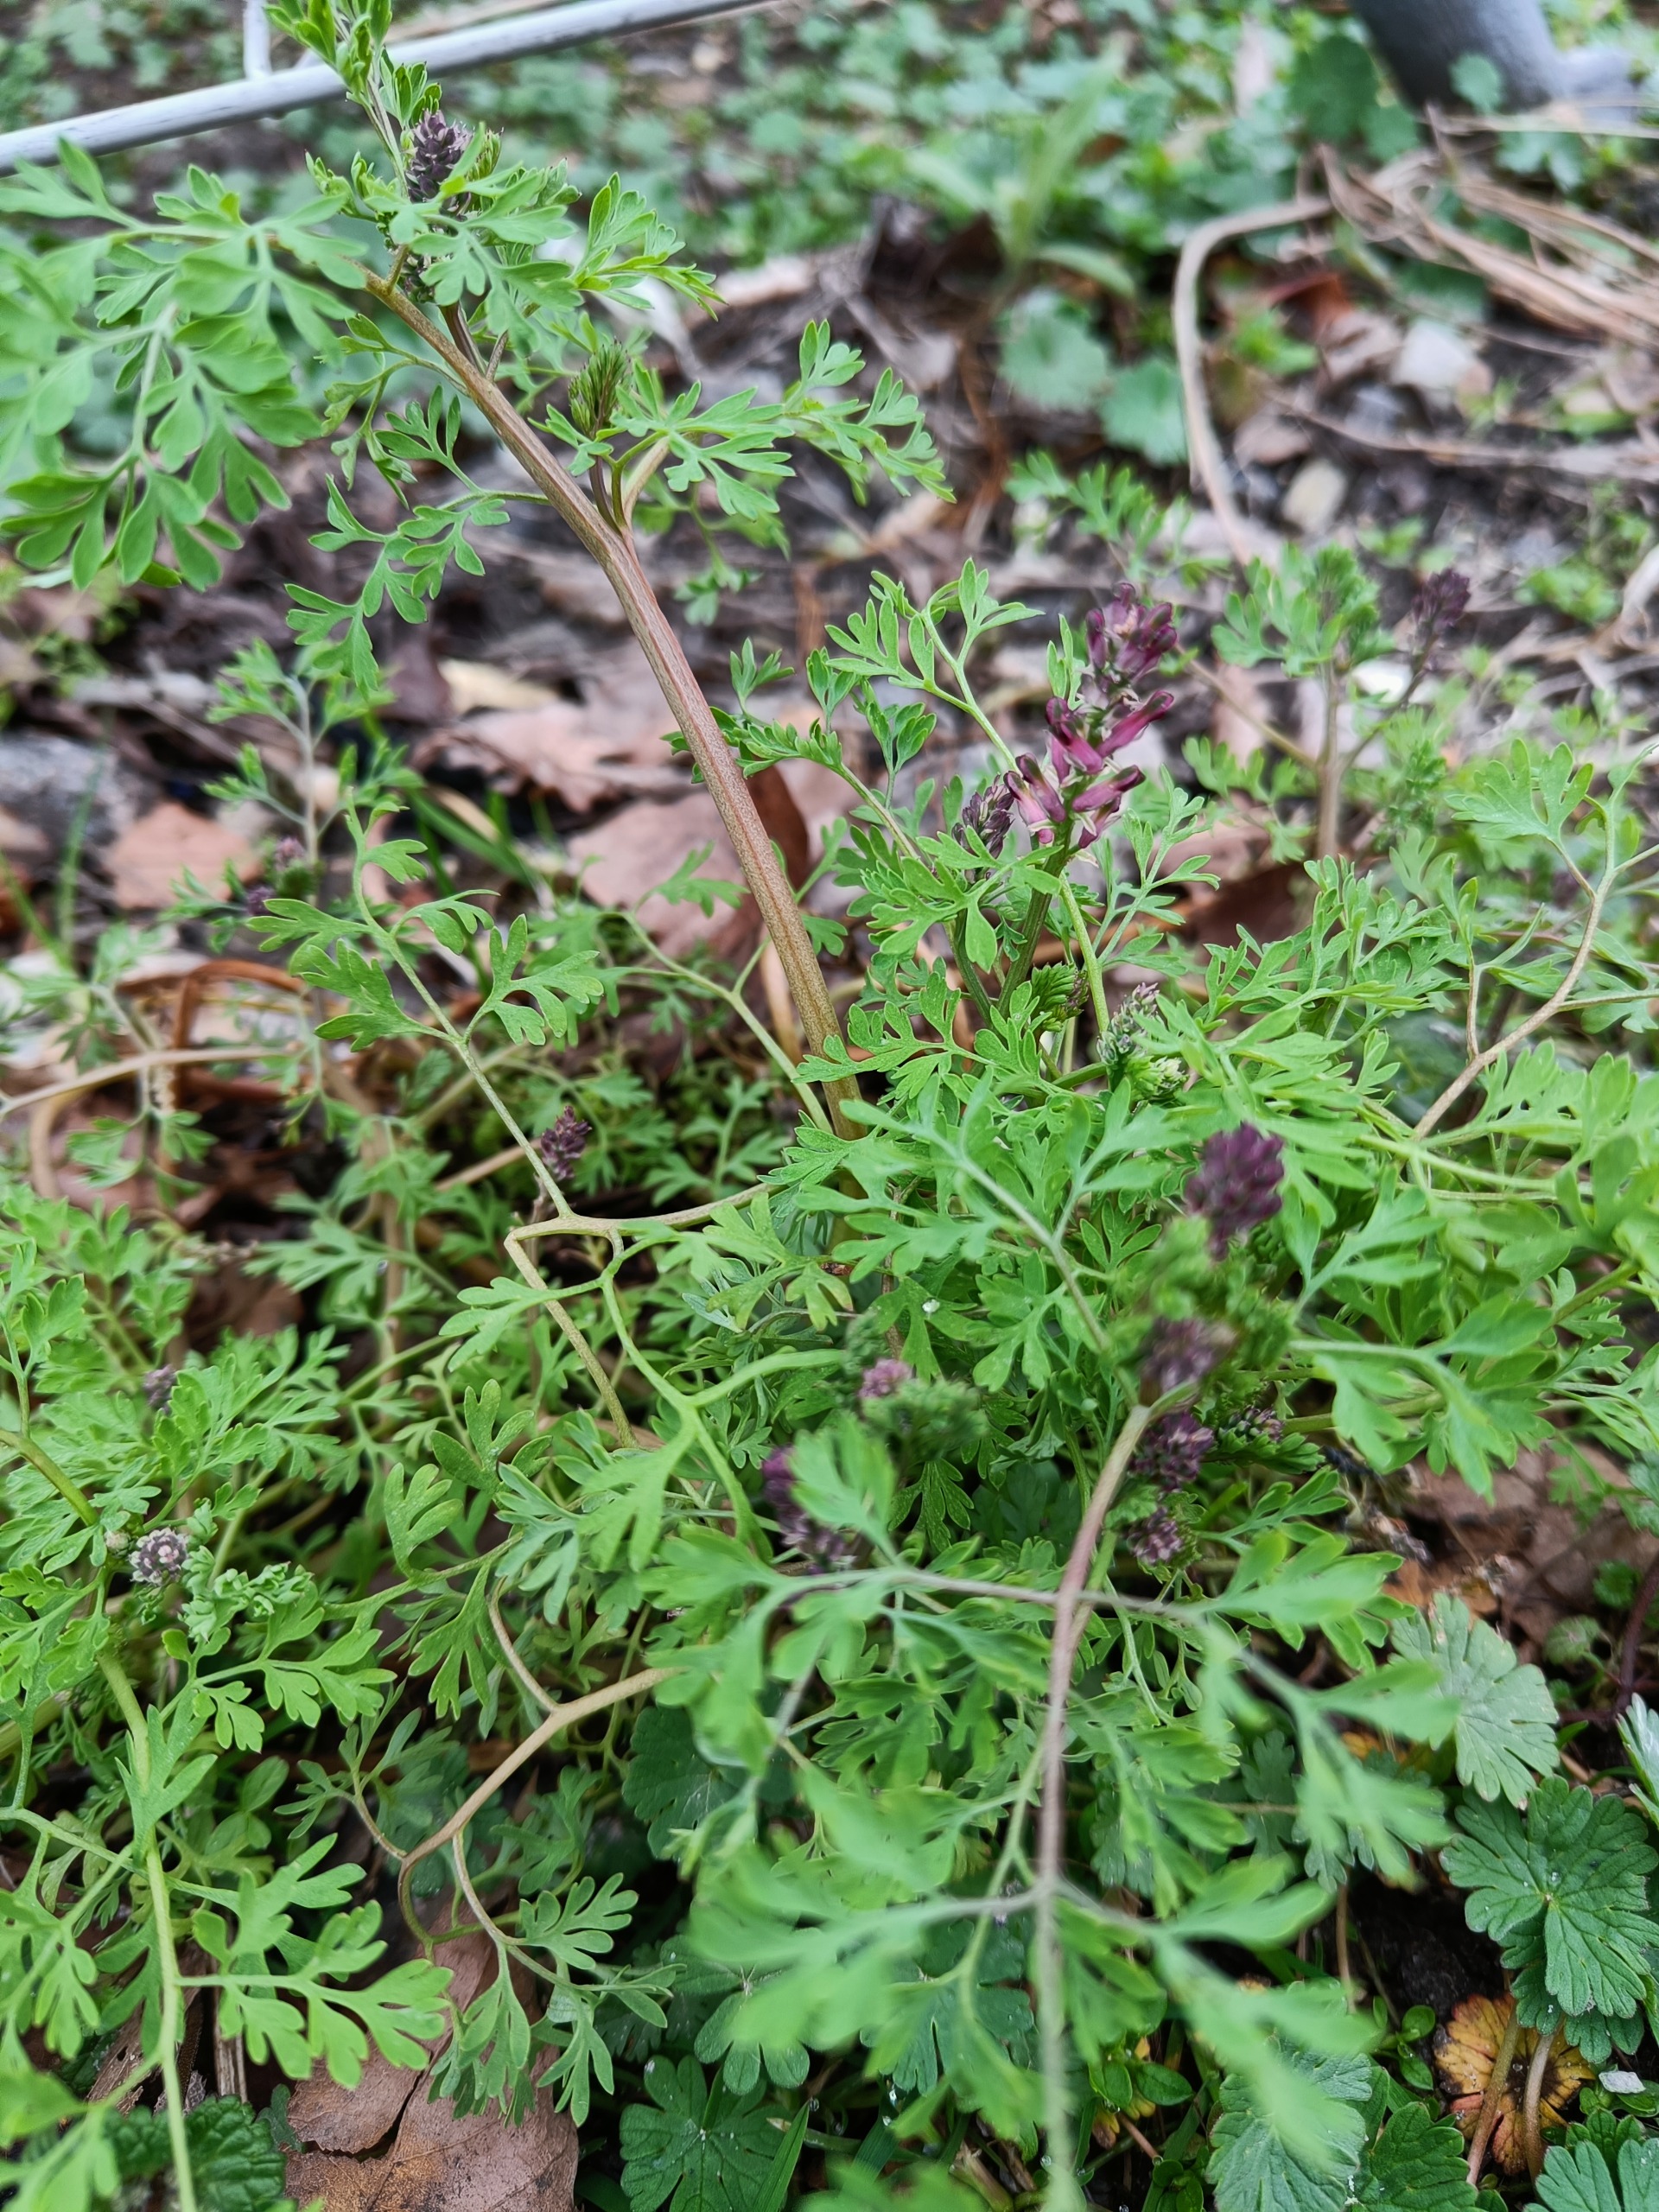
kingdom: Plantae
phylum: Tracheophyta
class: Magnoliopsida
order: Ranunculales
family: Papaveraceae
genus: Fumaria
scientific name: Fumaria officinalis
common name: Læge-jordrøg
